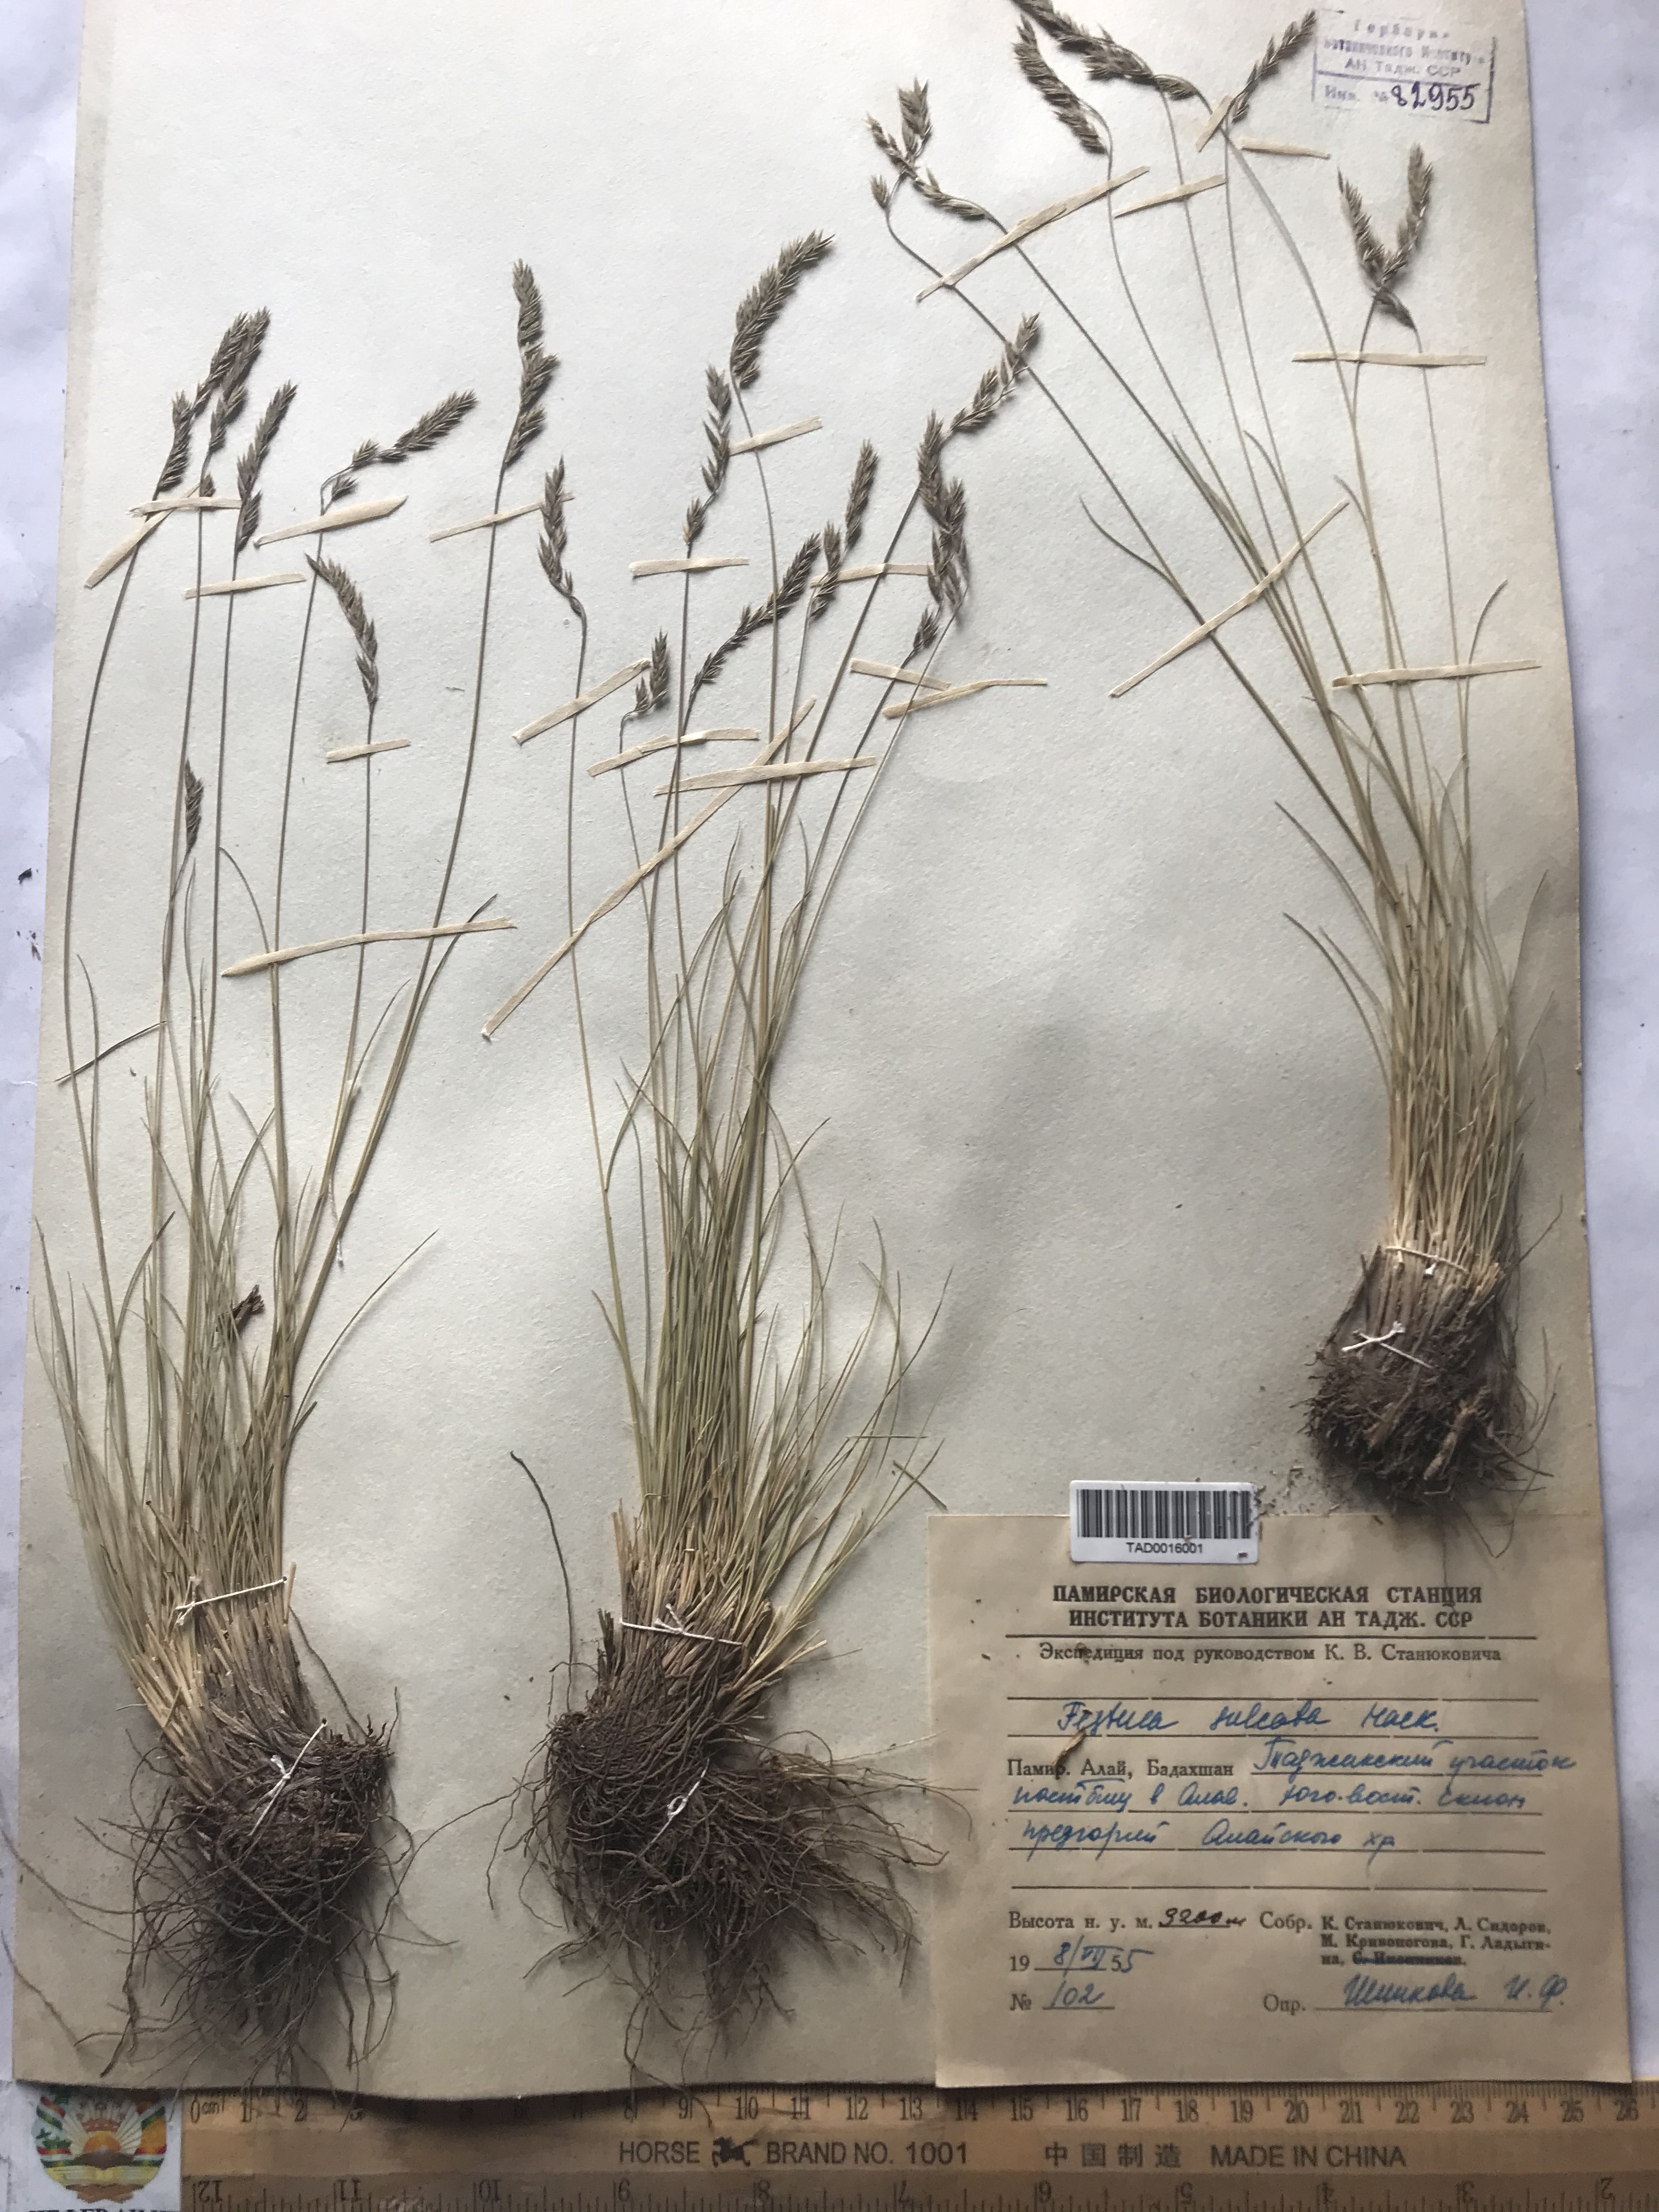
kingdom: Plantae
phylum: Tracheophyta
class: Liliopsida
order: Poales
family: Poaceae
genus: Festuca
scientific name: Festuca sulcata
